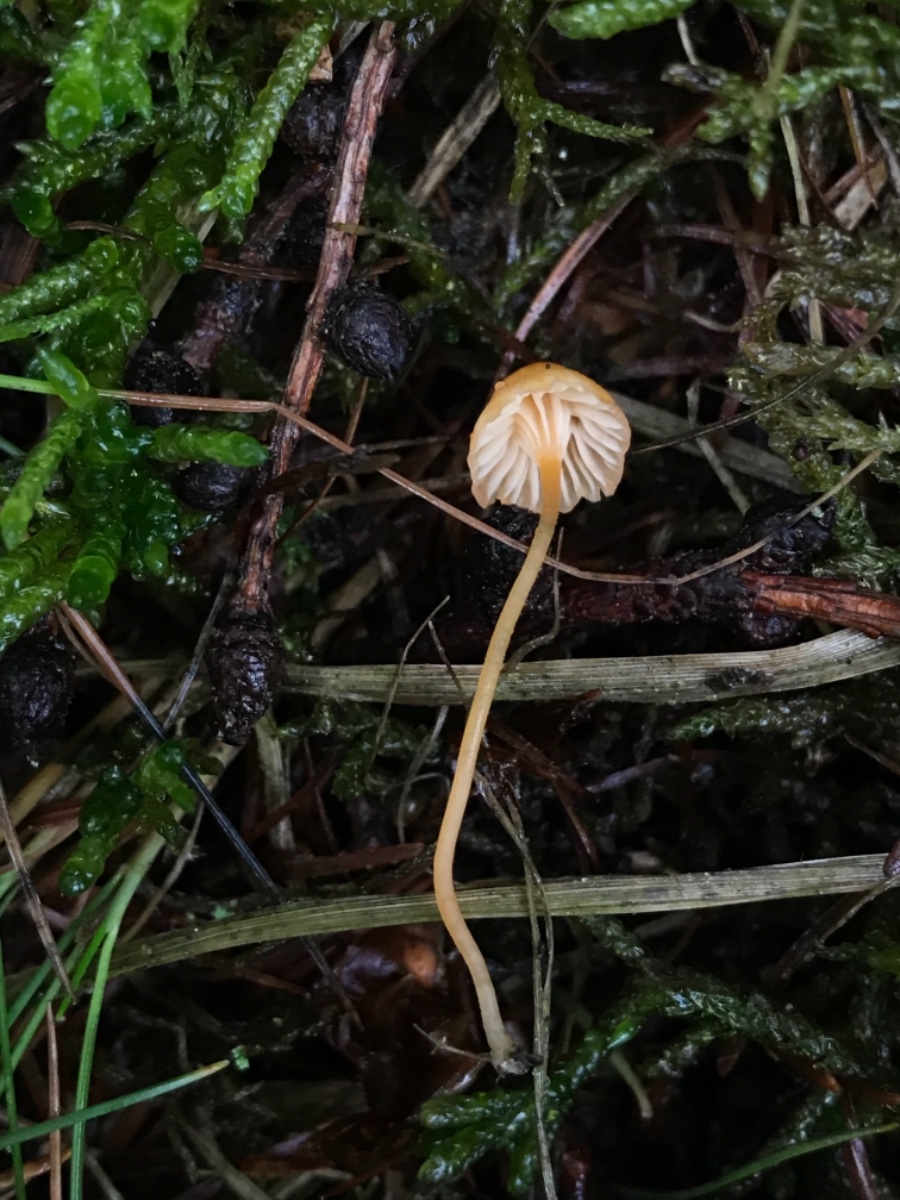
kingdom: Fungi
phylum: Basidiomycota
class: Agaricomycetes
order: Hymenochaetales
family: Rickenellaceae
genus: Rickenella
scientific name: Rickenella fibula
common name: orange mosnavlehat
